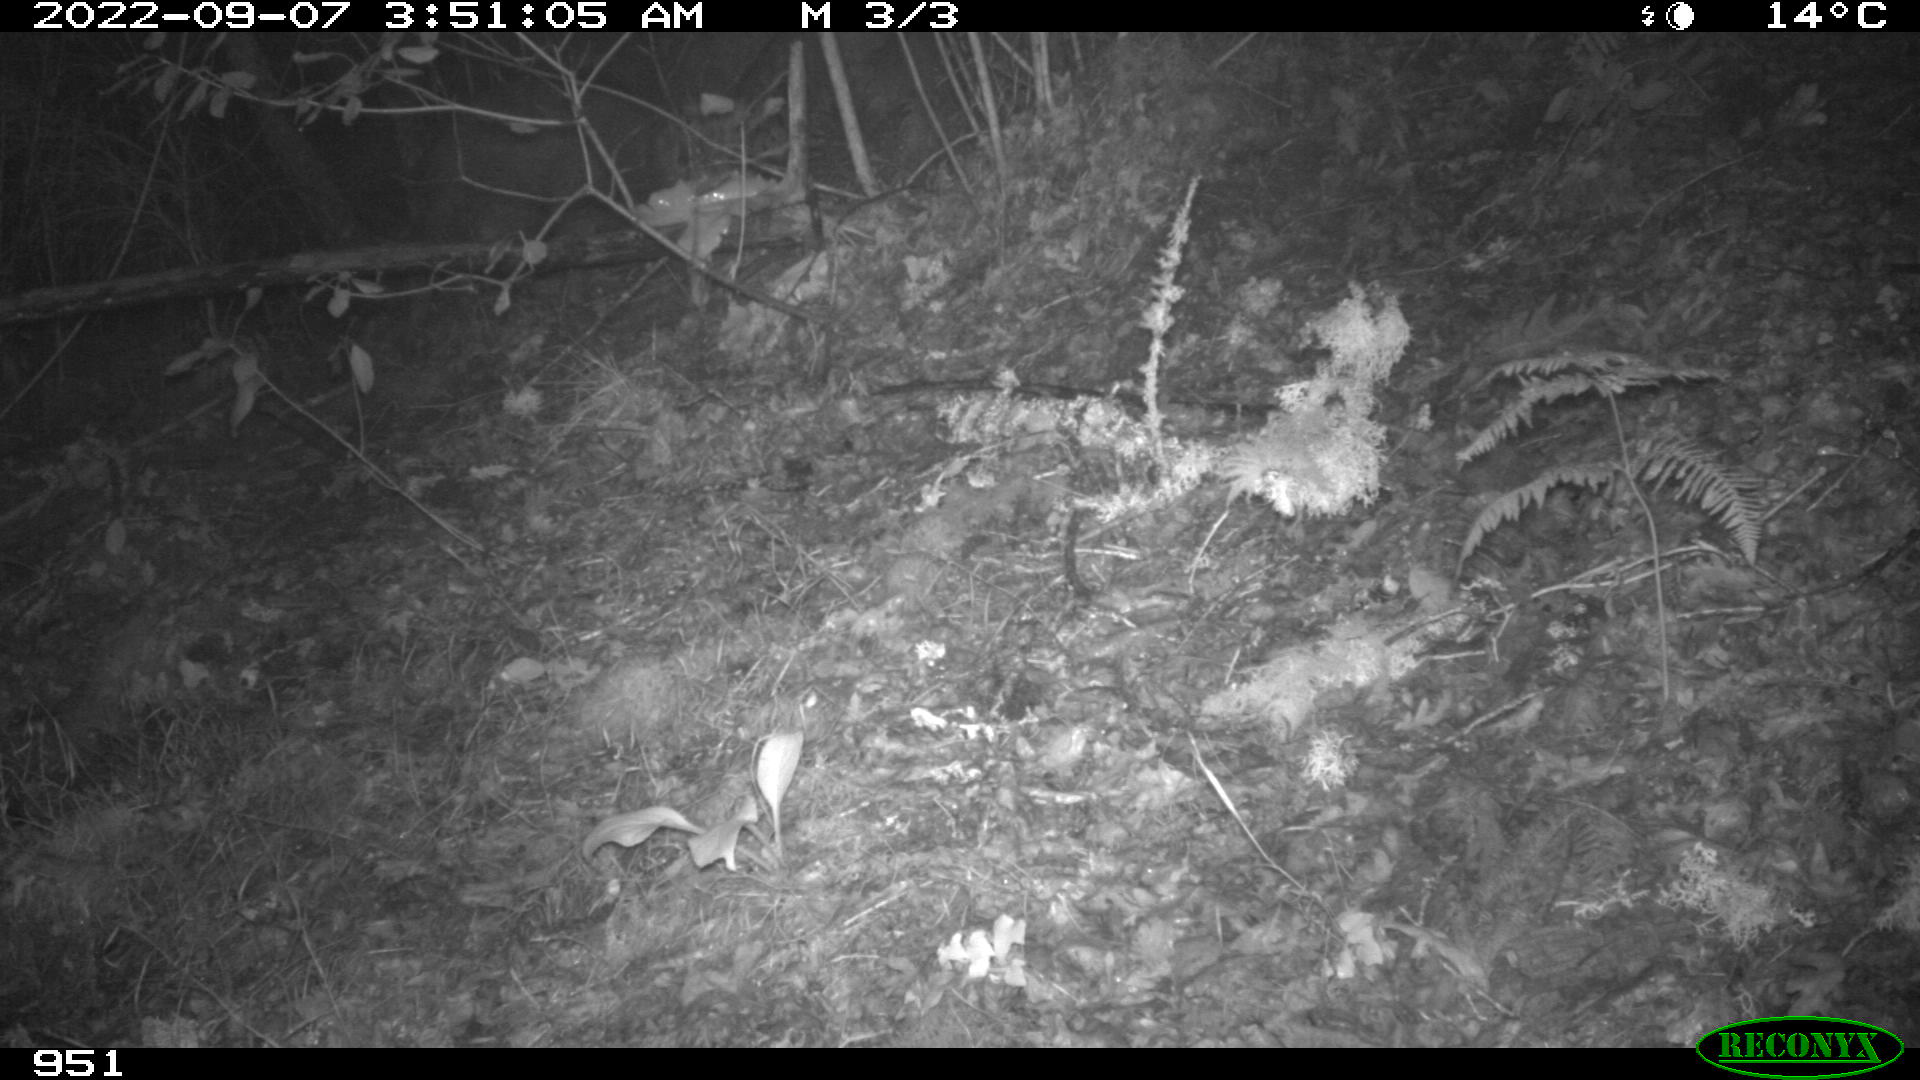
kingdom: Animalia
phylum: Chordata
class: Mammalia
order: Artiodactyla
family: Suidae
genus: Sus
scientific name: Sus scrofa
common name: Wild boar
